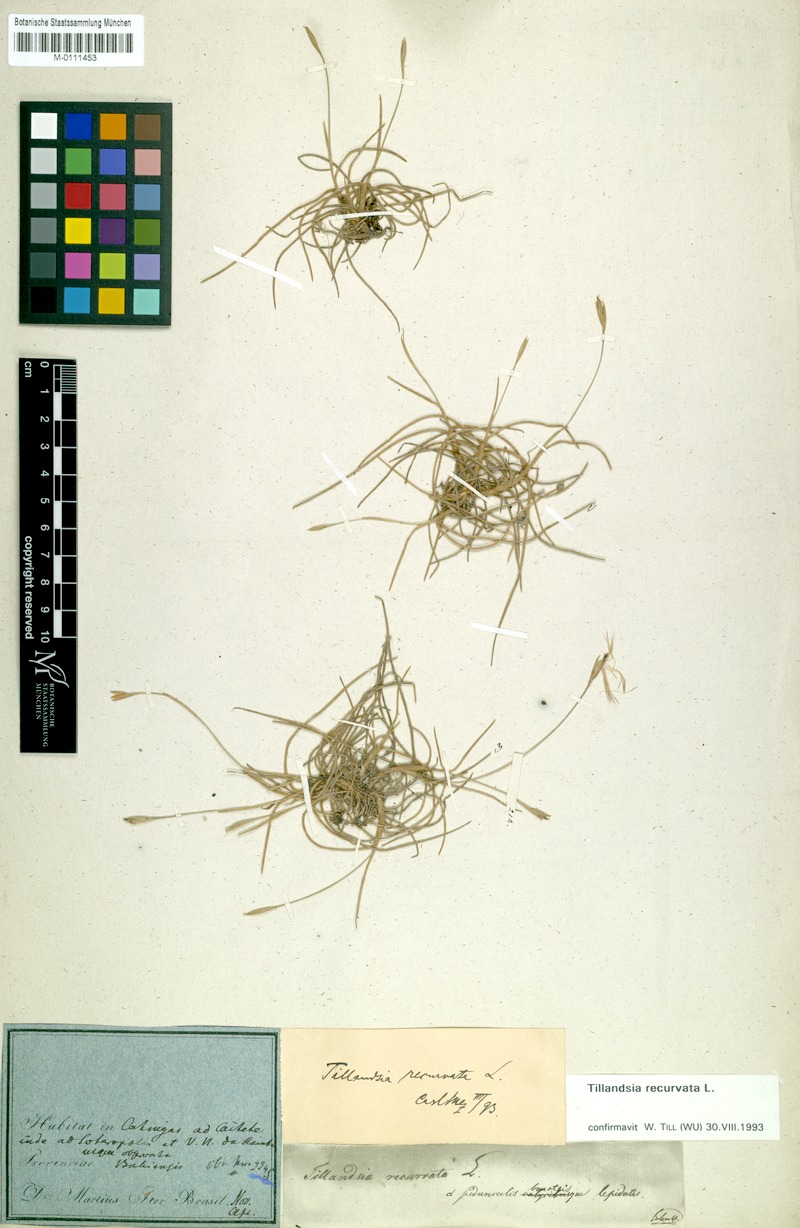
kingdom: Plantae
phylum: Tracheophyta
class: Liliopsida
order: Poales
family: Bromeliaceae
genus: Tillandsia
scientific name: Tillandsia recurvata
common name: Small ballmoss
